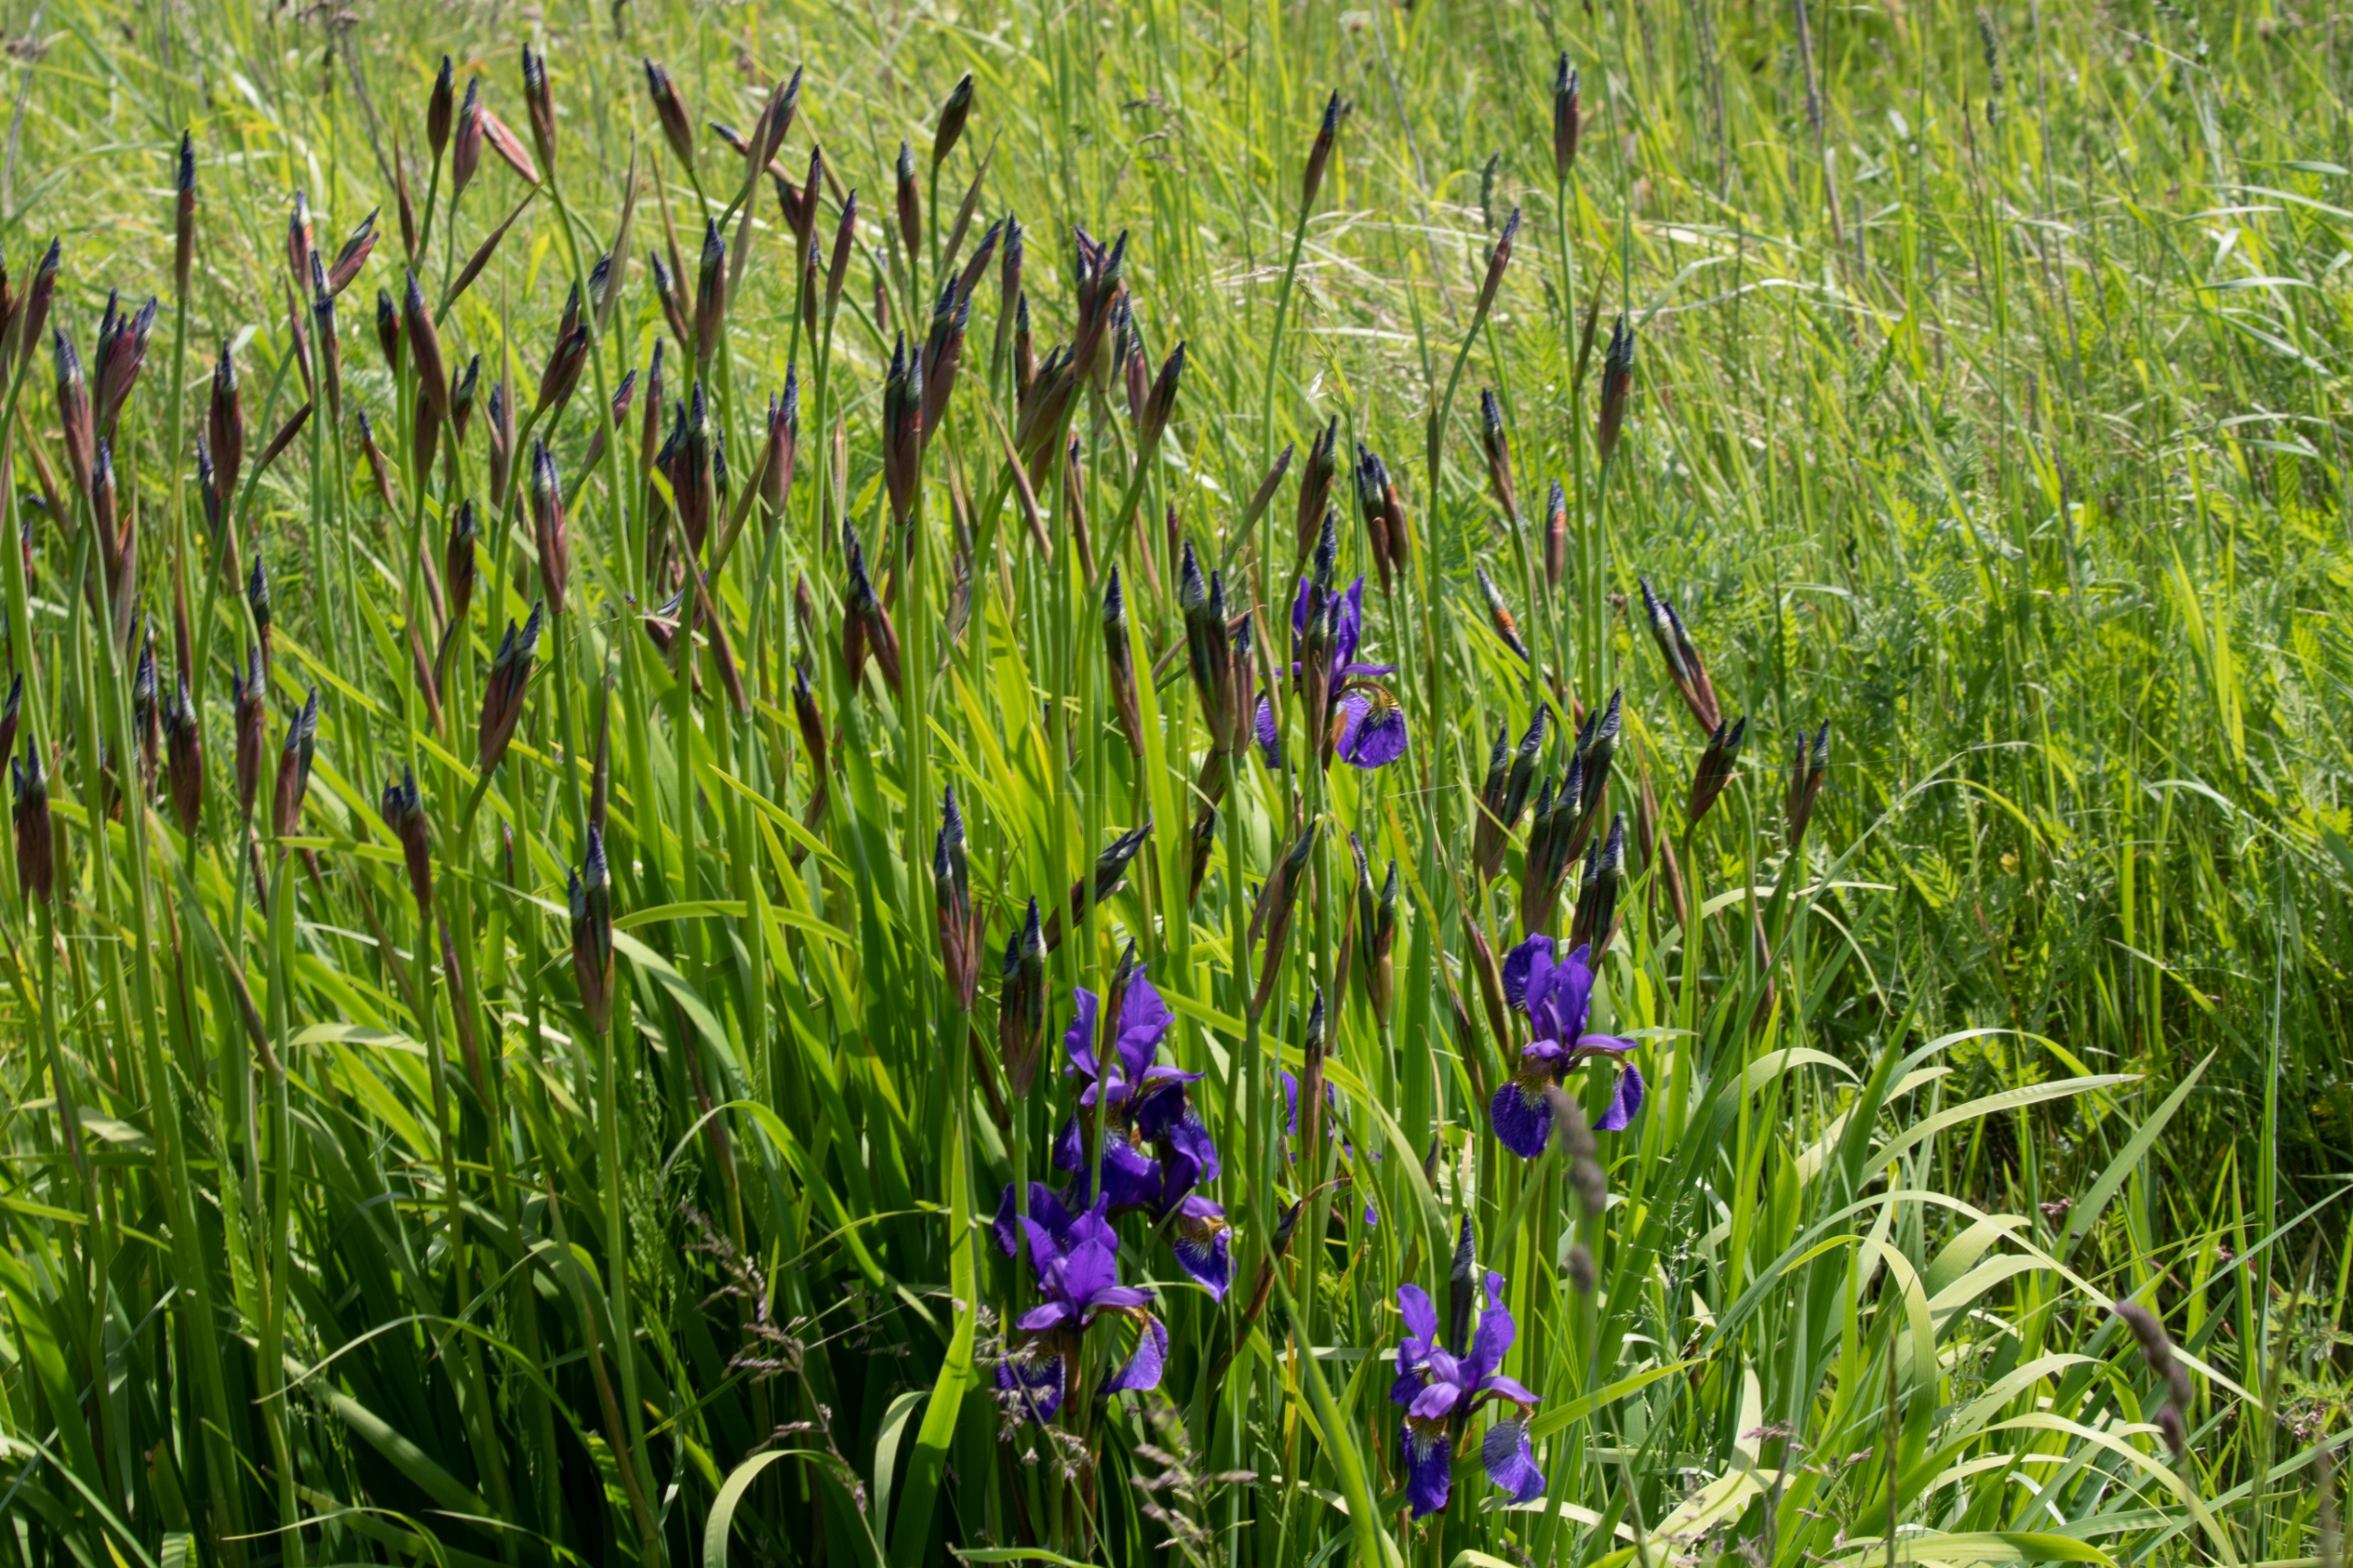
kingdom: Plantae
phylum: Tracheophyta
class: Liliopsida
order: Asparagales
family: Iridaceae
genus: Iris
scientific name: Iris delavayi
